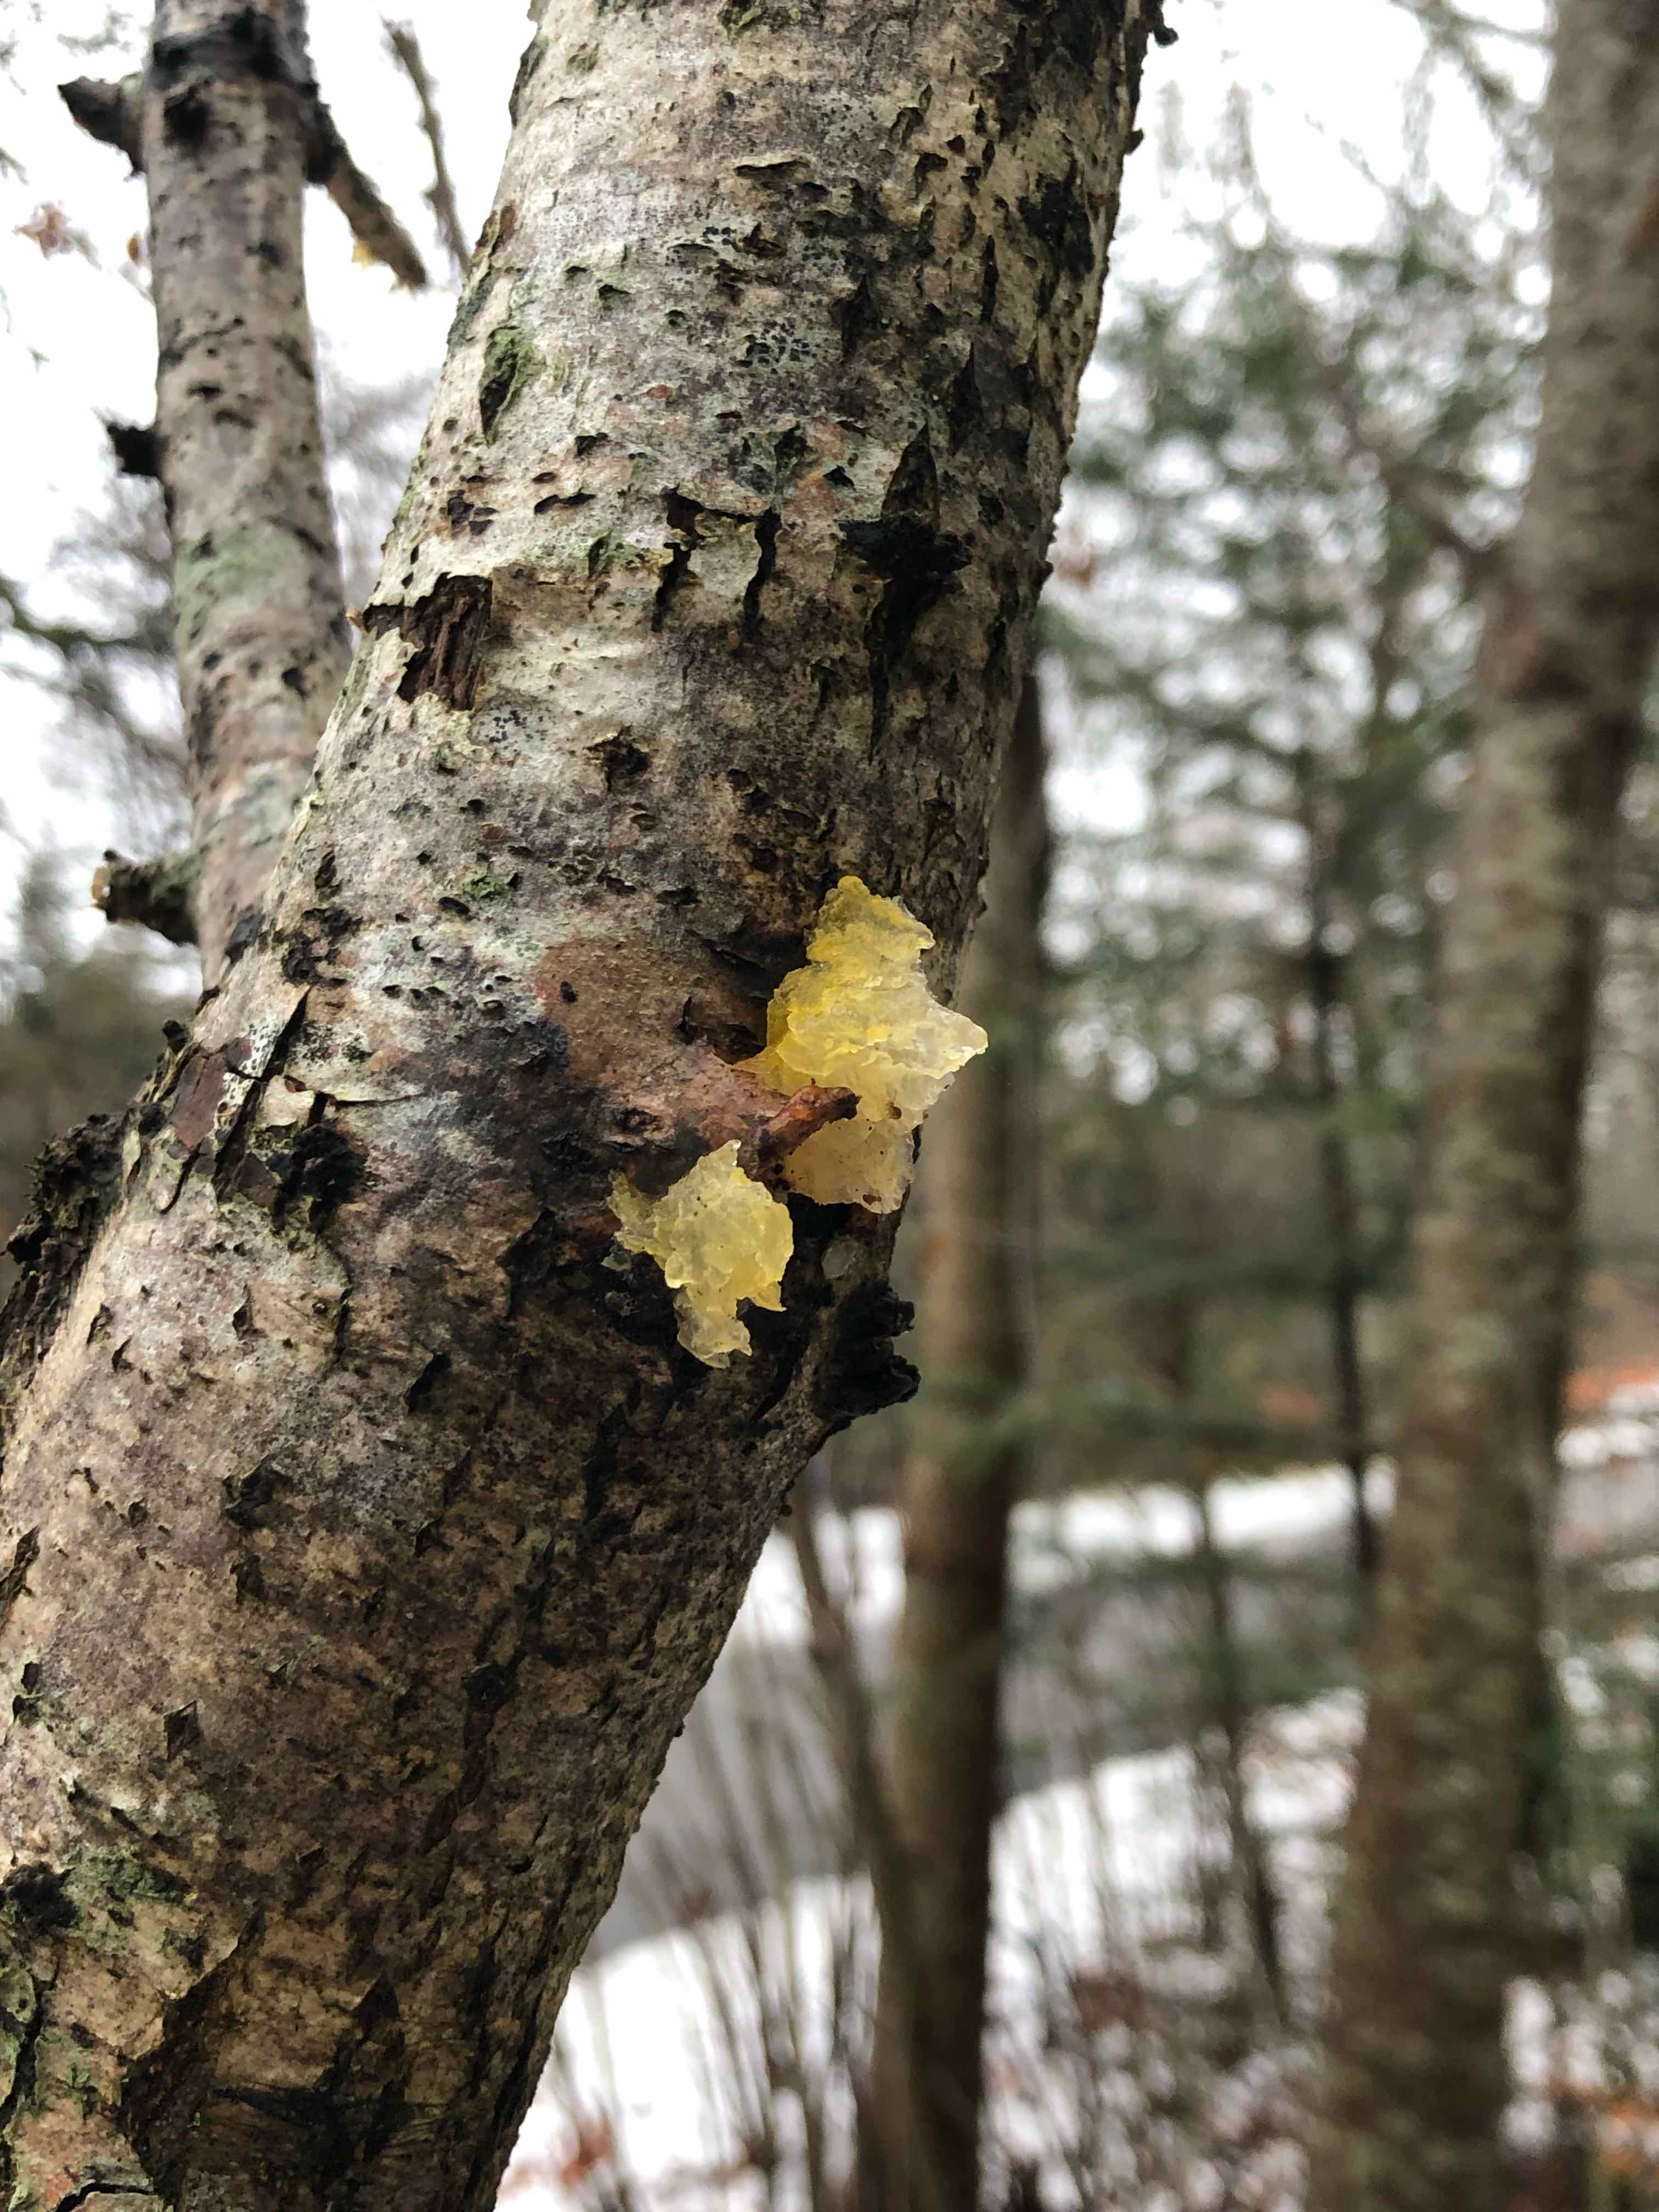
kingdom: Fungi
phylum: Basidiomycota
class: Tremellomycetes
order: Tremellales
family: Tremellaceae
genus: Tremella
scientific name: Tremella mesenterica
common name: gul bævresvamp
